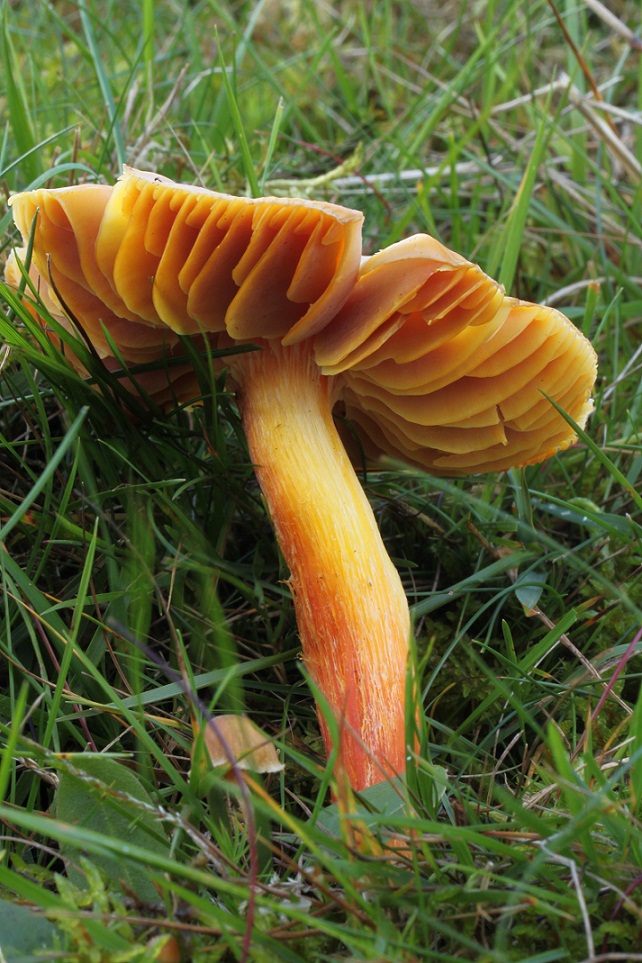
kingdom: Fungi
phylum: Basidiomycota
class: Agaricomycetes
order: Agaricales
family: Hygrophoraceae
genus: Hygrocybe
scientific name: Hygrocybe punicea
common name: skarlagen-vokshat
